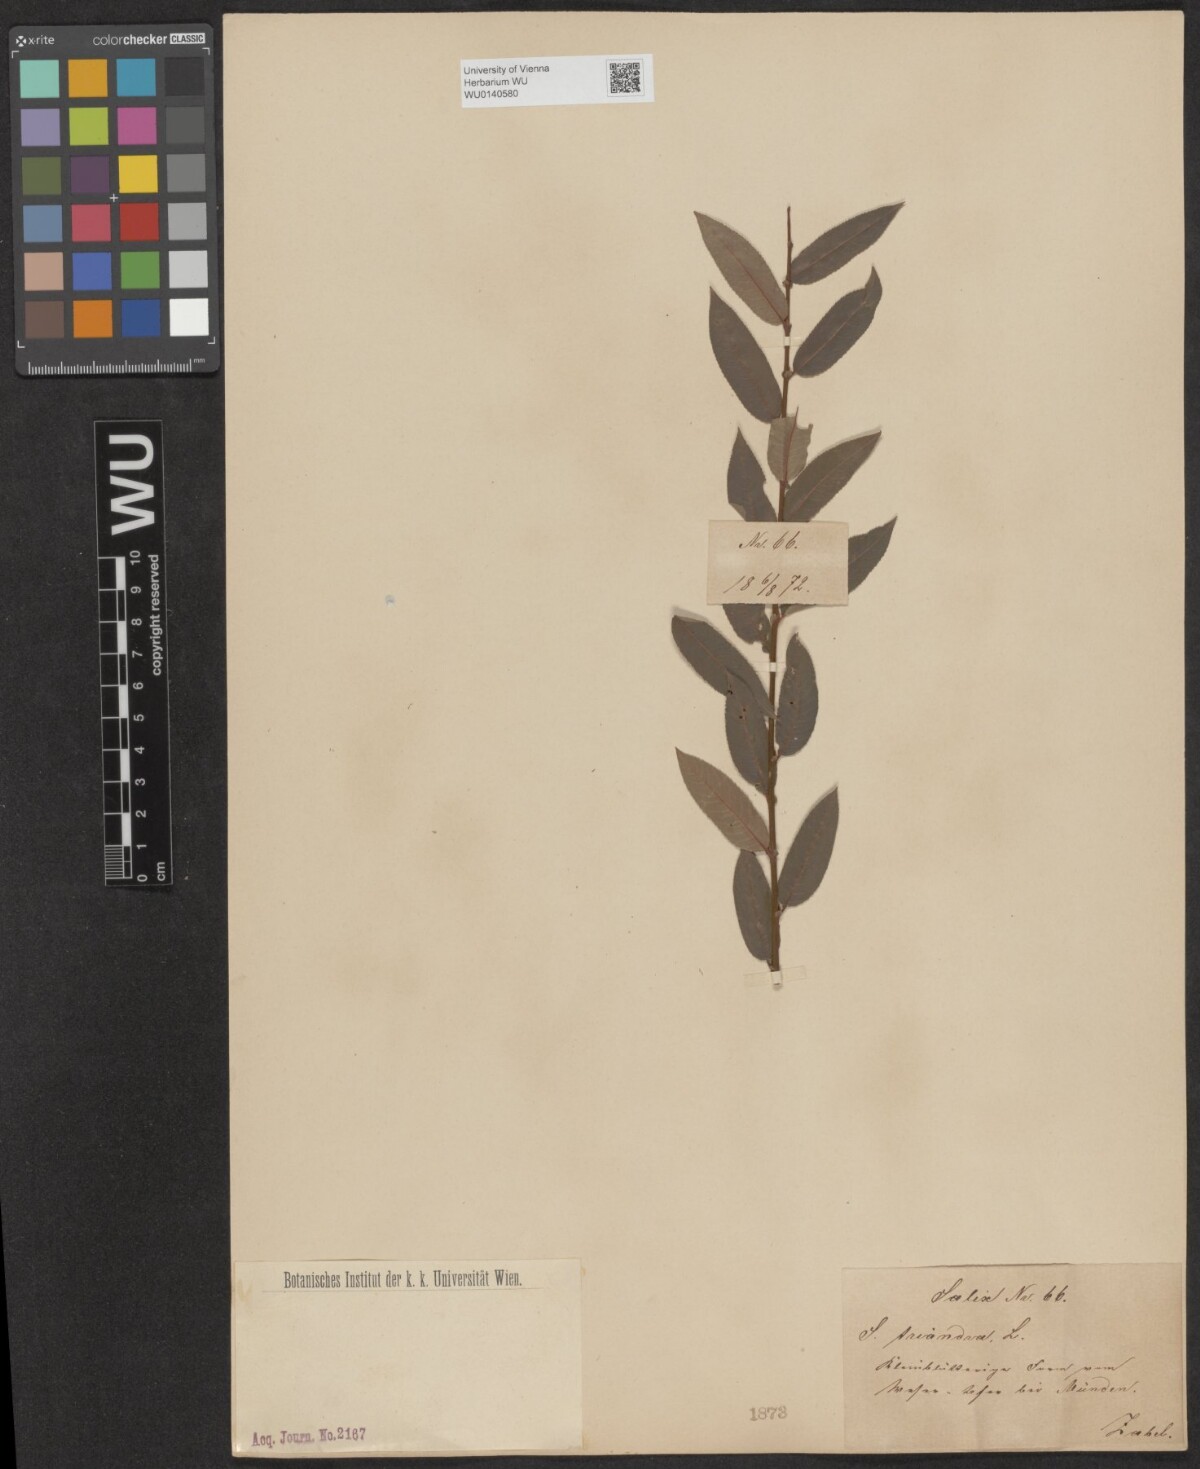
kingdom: Plantae
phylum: Tracheophyta
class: Magnoliopsida
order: Malpighiales
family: Salicaceae
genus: Salix
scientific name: Salix triandra
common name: Almond willow
